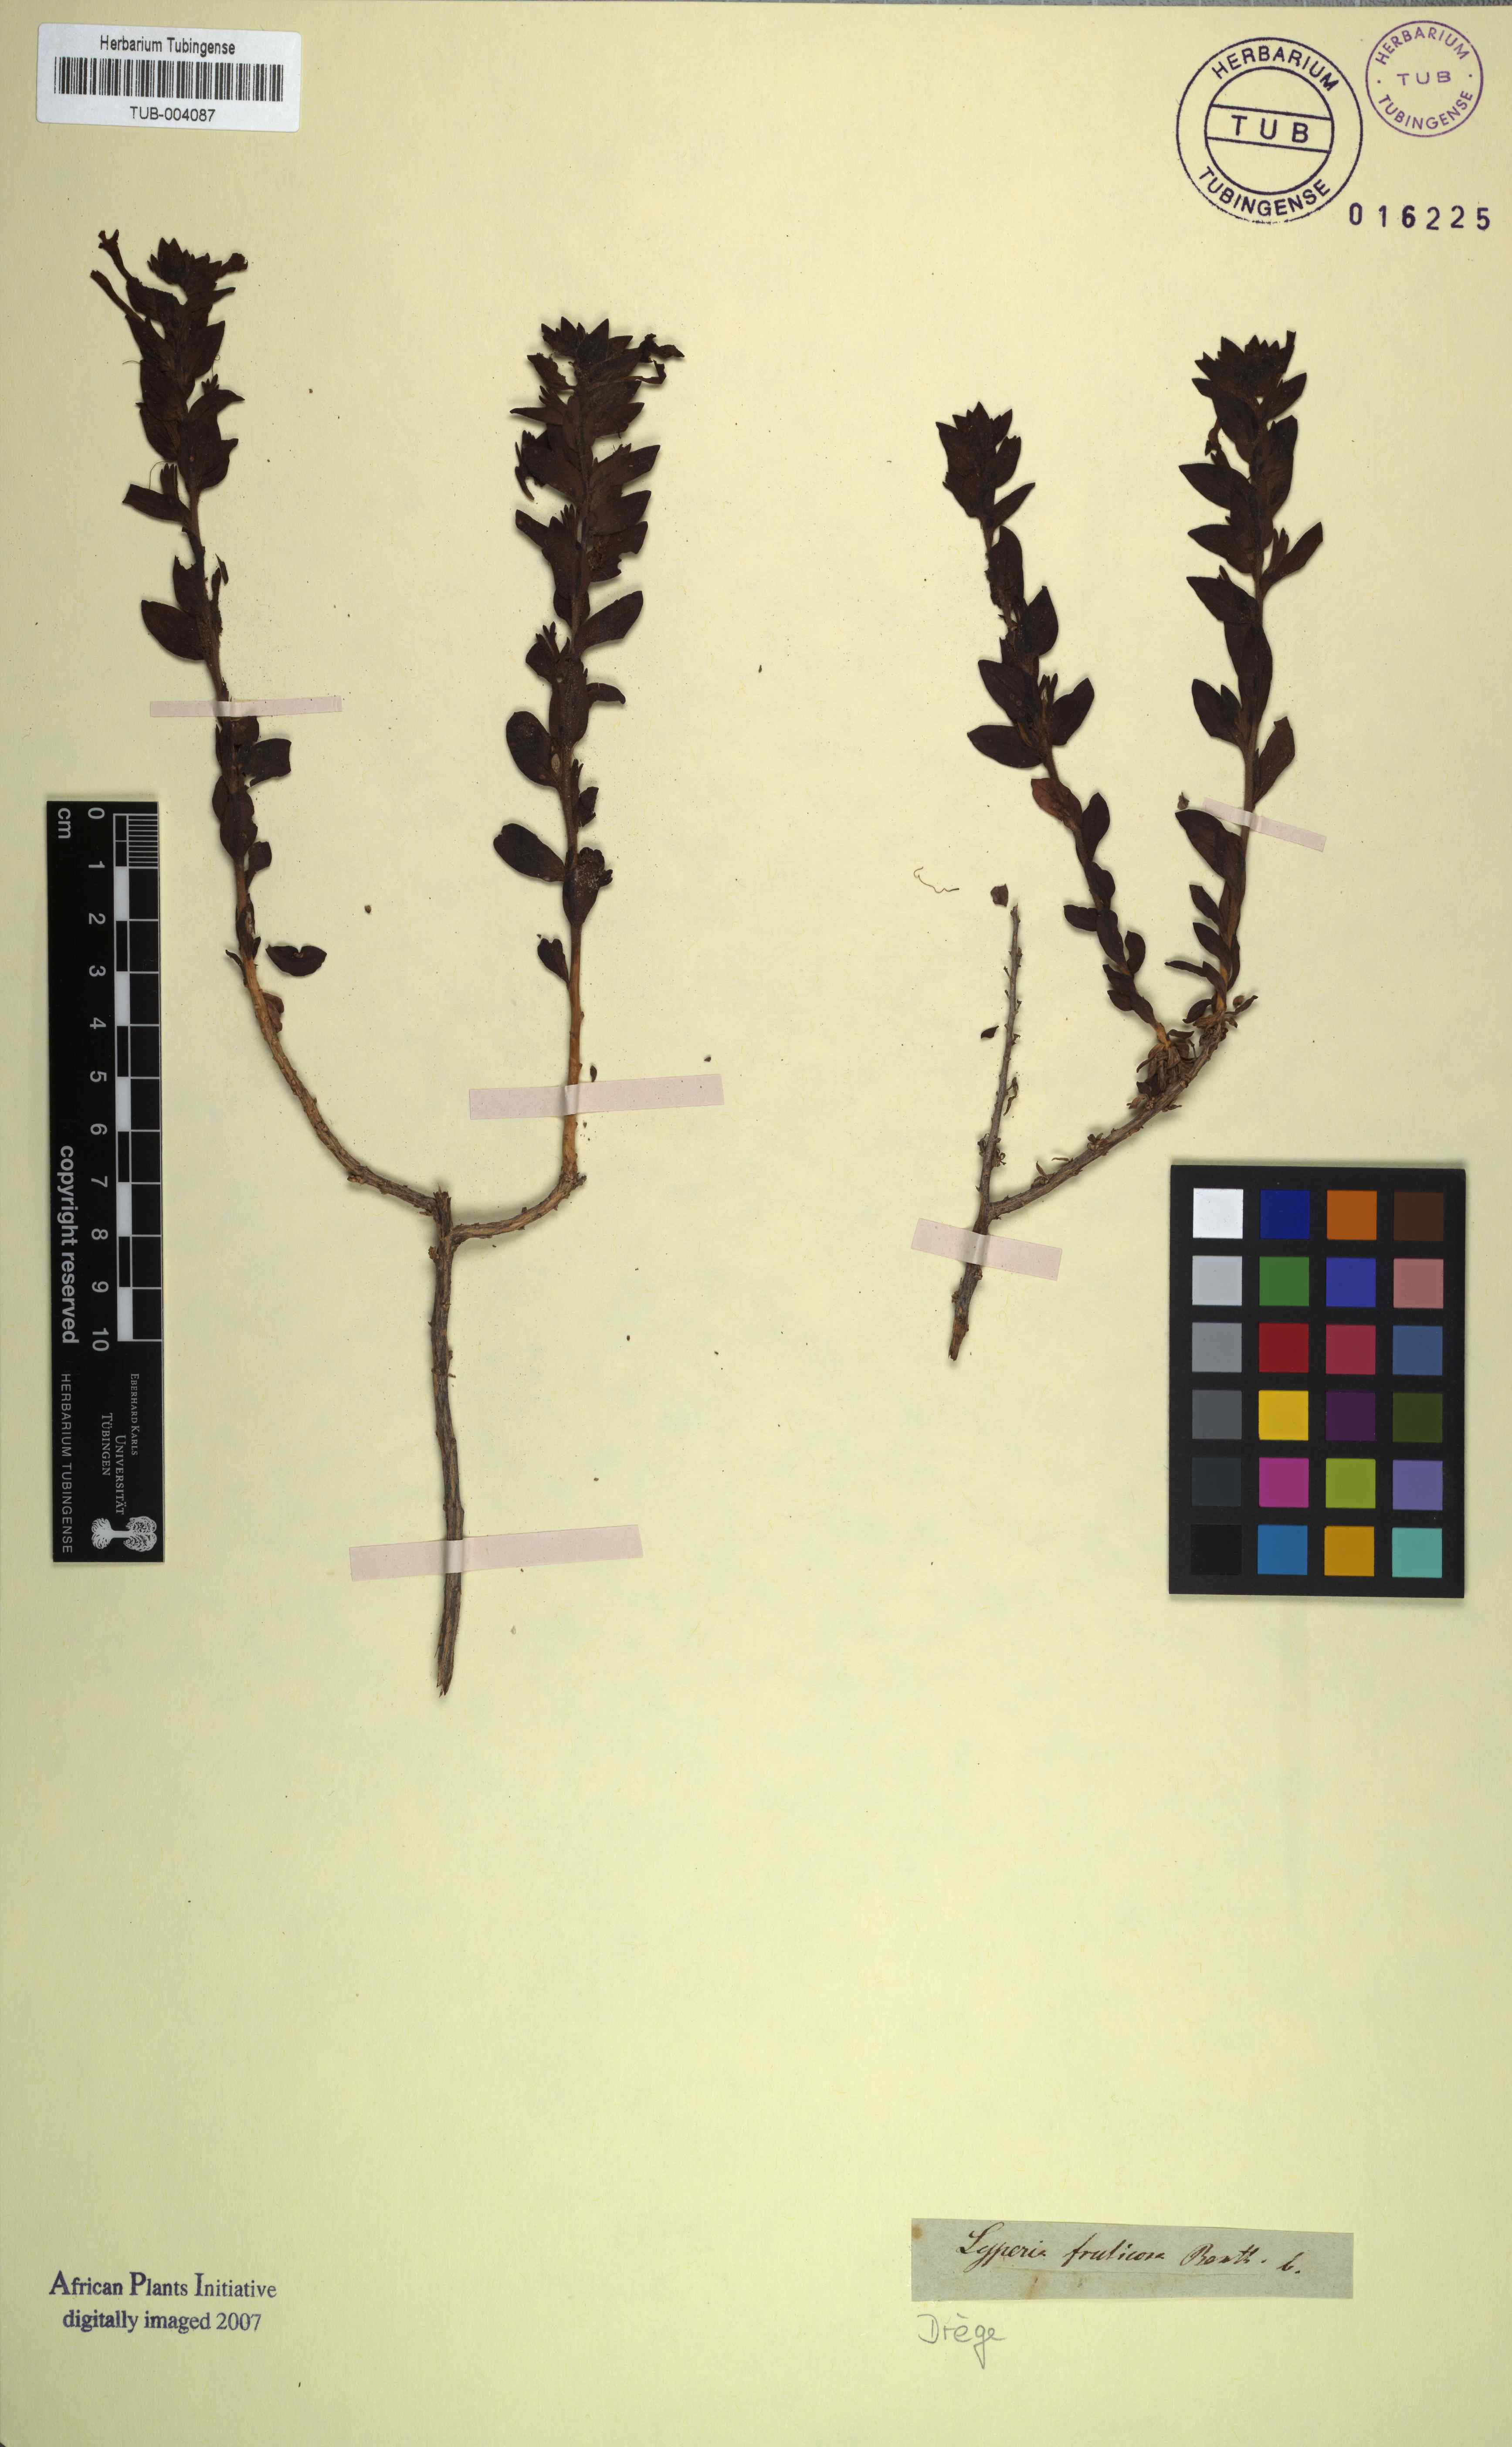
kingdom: Plantae
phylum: Tracheophyta
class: Magnoliopsida
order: Lamiales
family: Scrophulariaceae
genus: Jamesbrittenia
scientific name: Jamesbrittenia fruticosa
